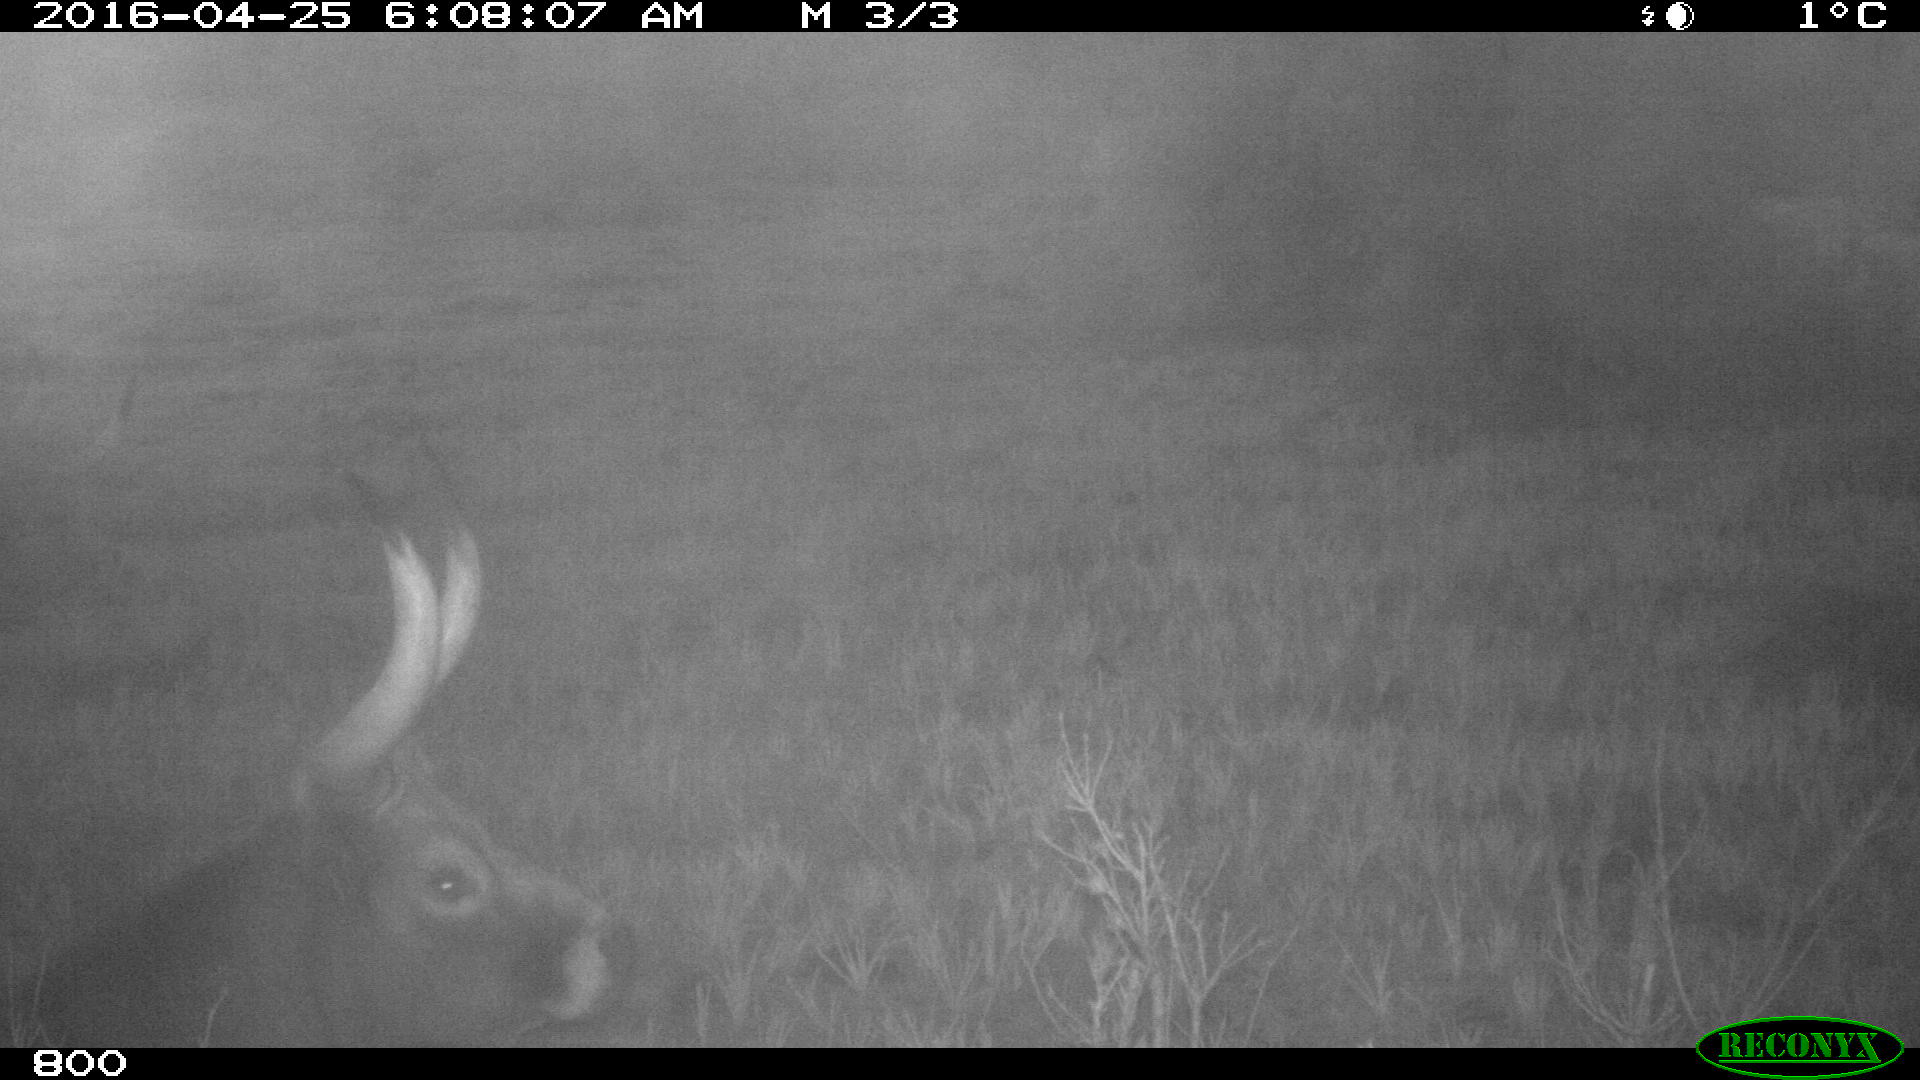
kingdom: Animalia
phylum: Chordata
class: Mammalia
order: Artiodactyla
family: Bovidae
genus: Bos
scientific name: Bos taurus
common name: Domesticated cattle
